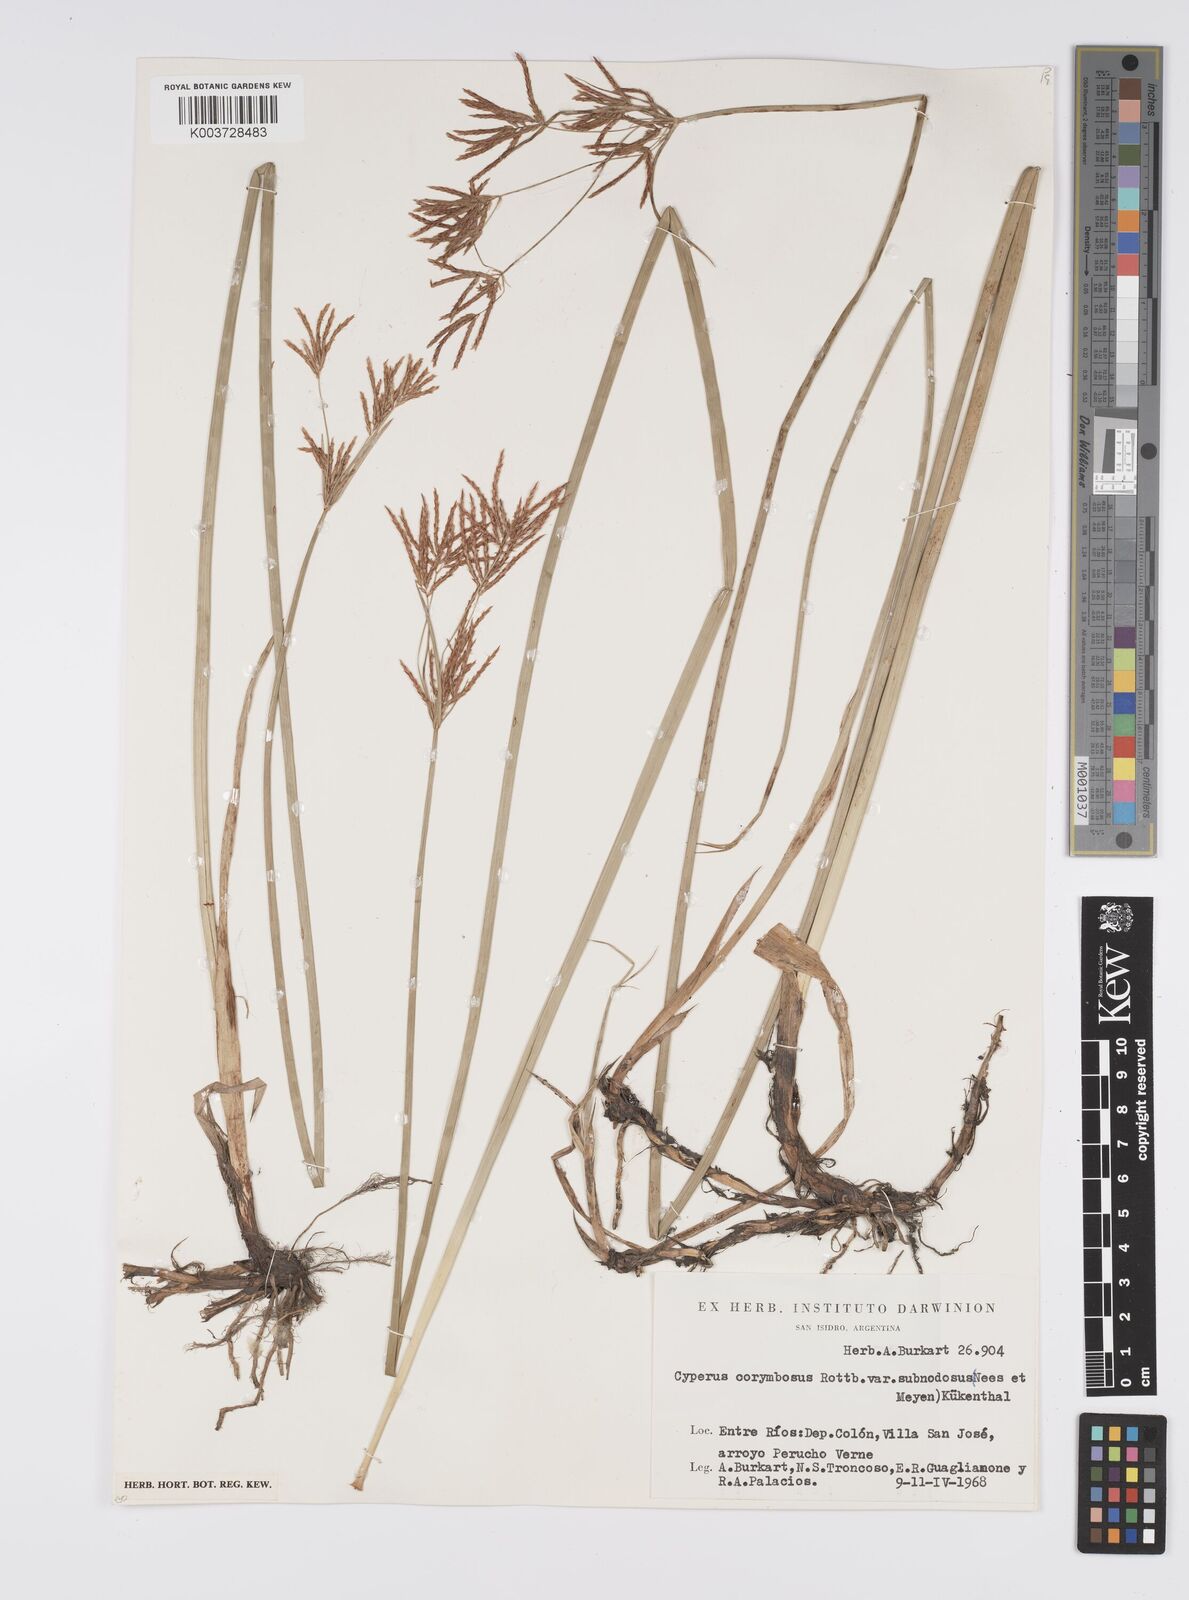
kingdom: Plantae
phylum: Tracheophyta
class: Liliopsida
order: Poales
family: Cyperaceae
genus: Cyperus
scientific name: Cyperus articulatus
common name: Jointed flatsedge
